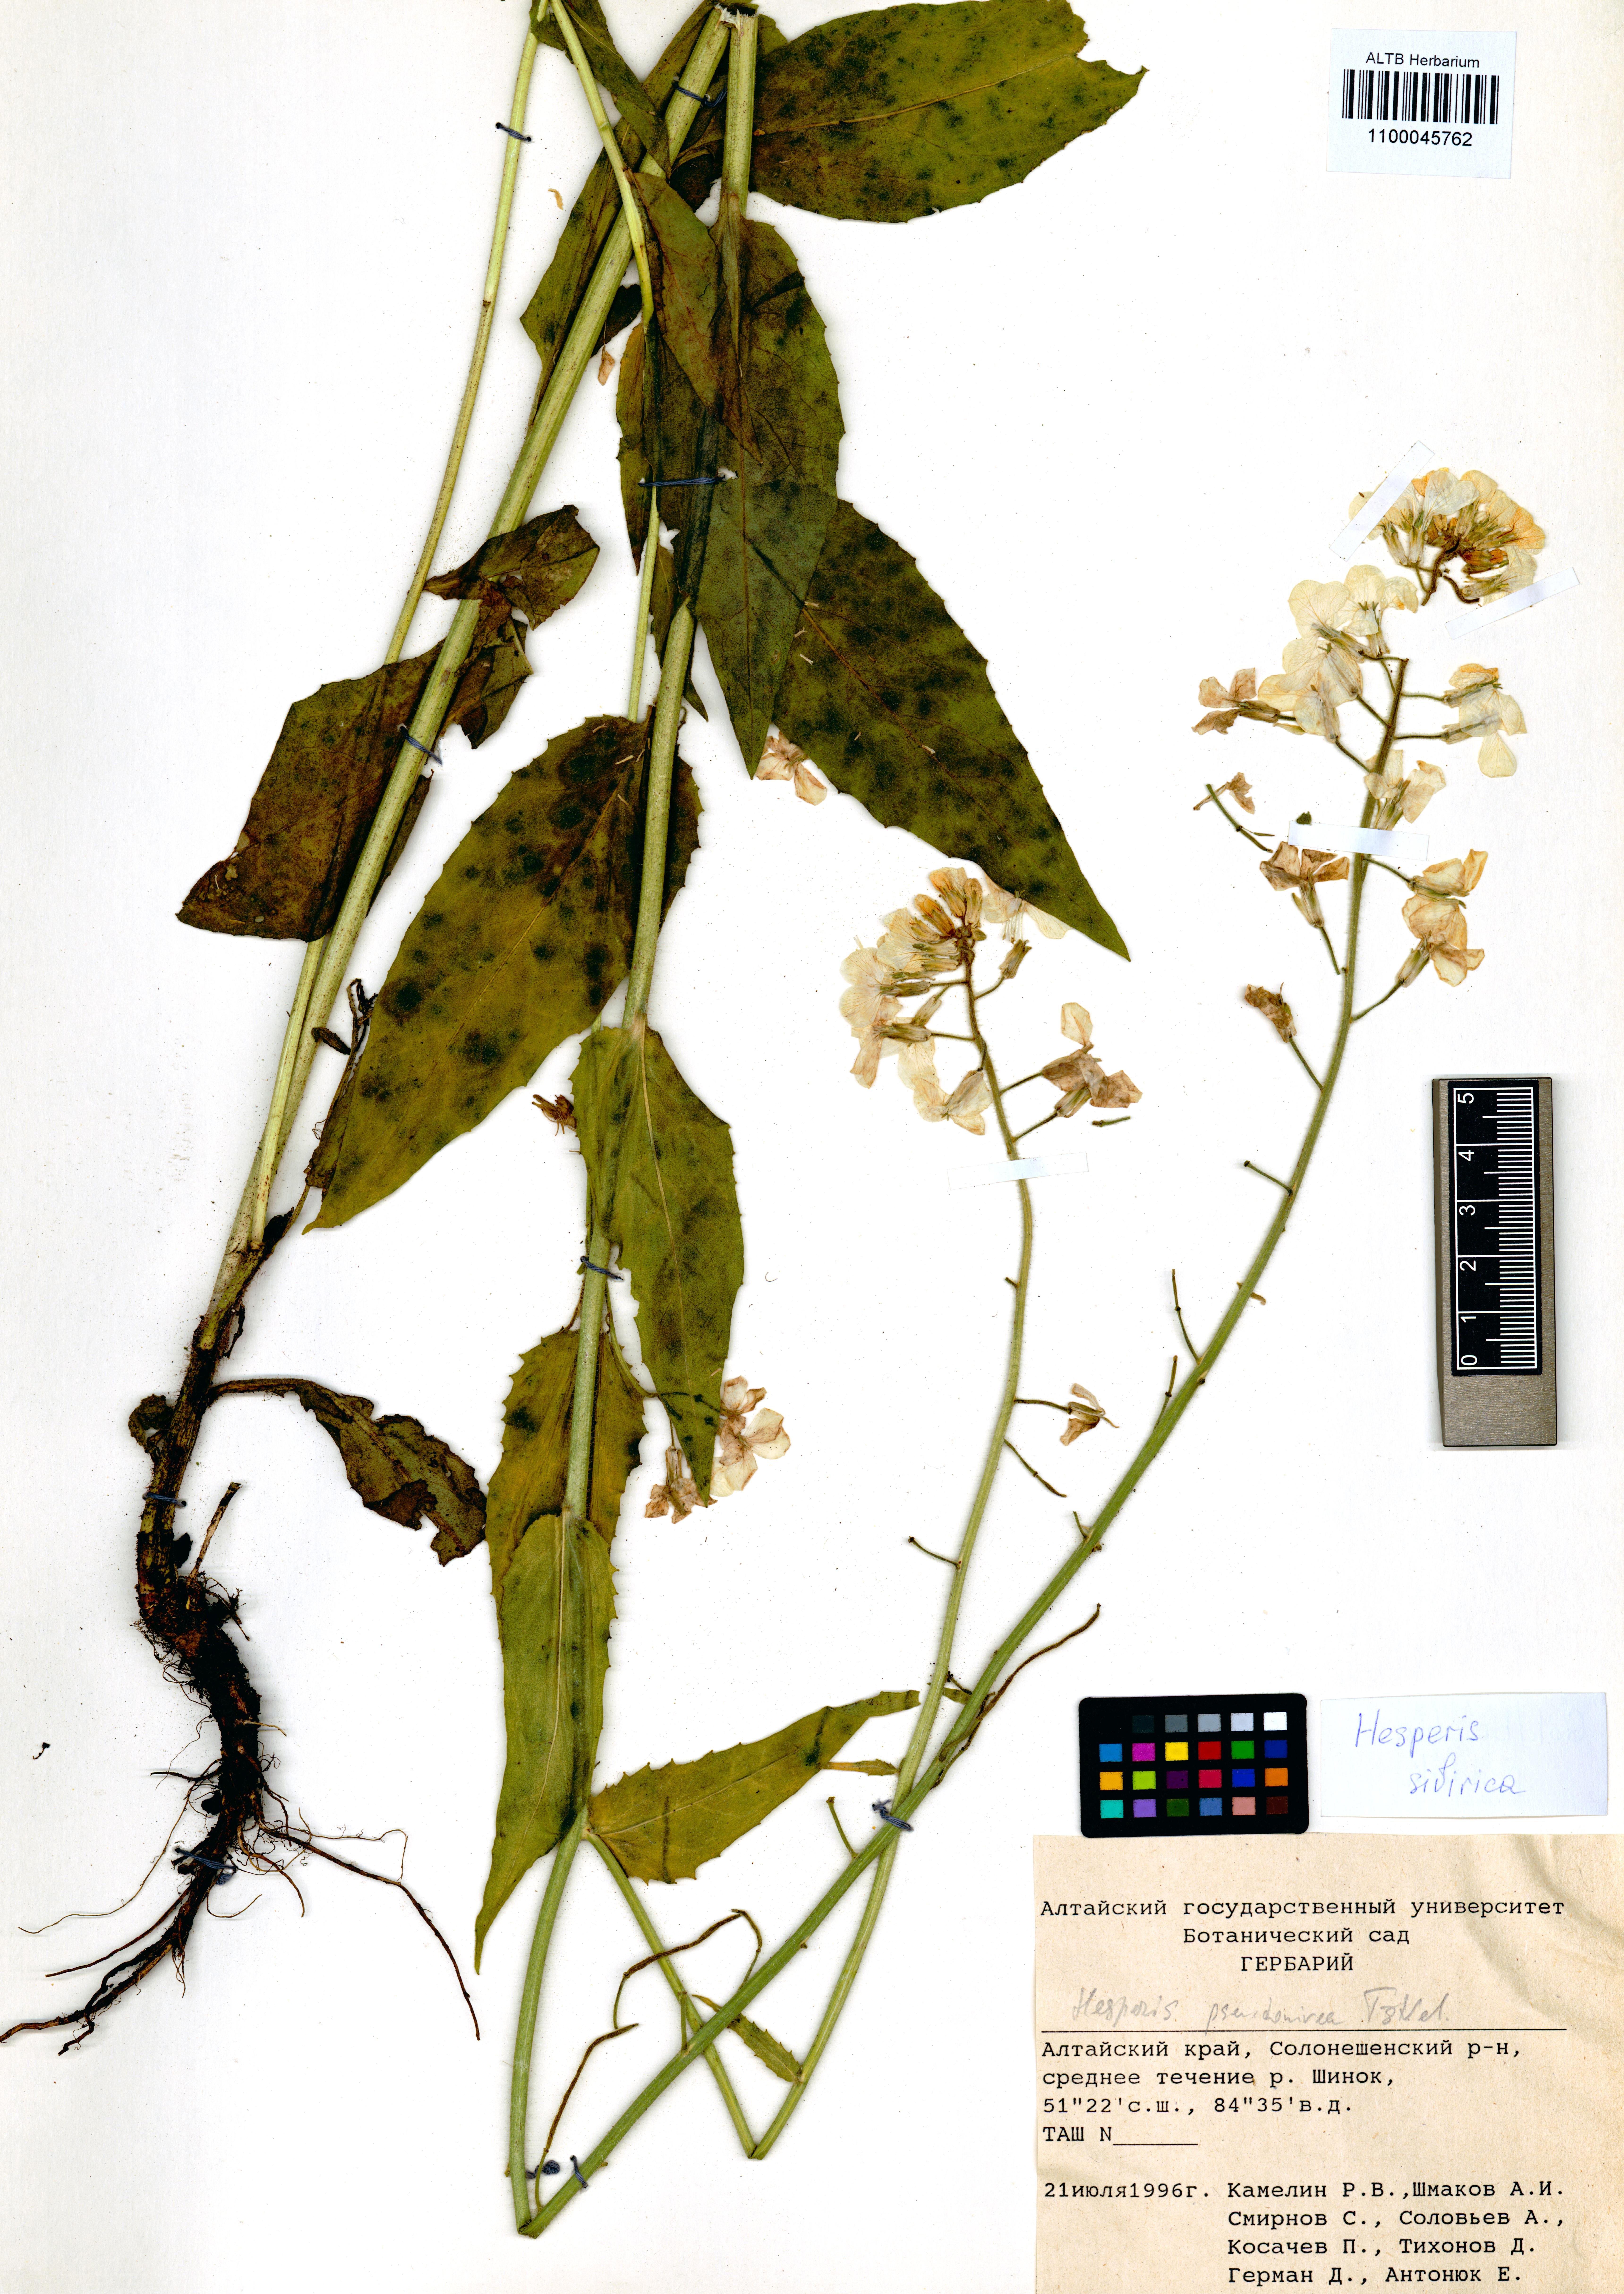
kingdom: Plantae
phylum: Tracheophyta
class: Magnoliopsida
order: Brassicales
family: Brassicaceae
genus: Hesperis
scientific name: Hesperis sibirica
